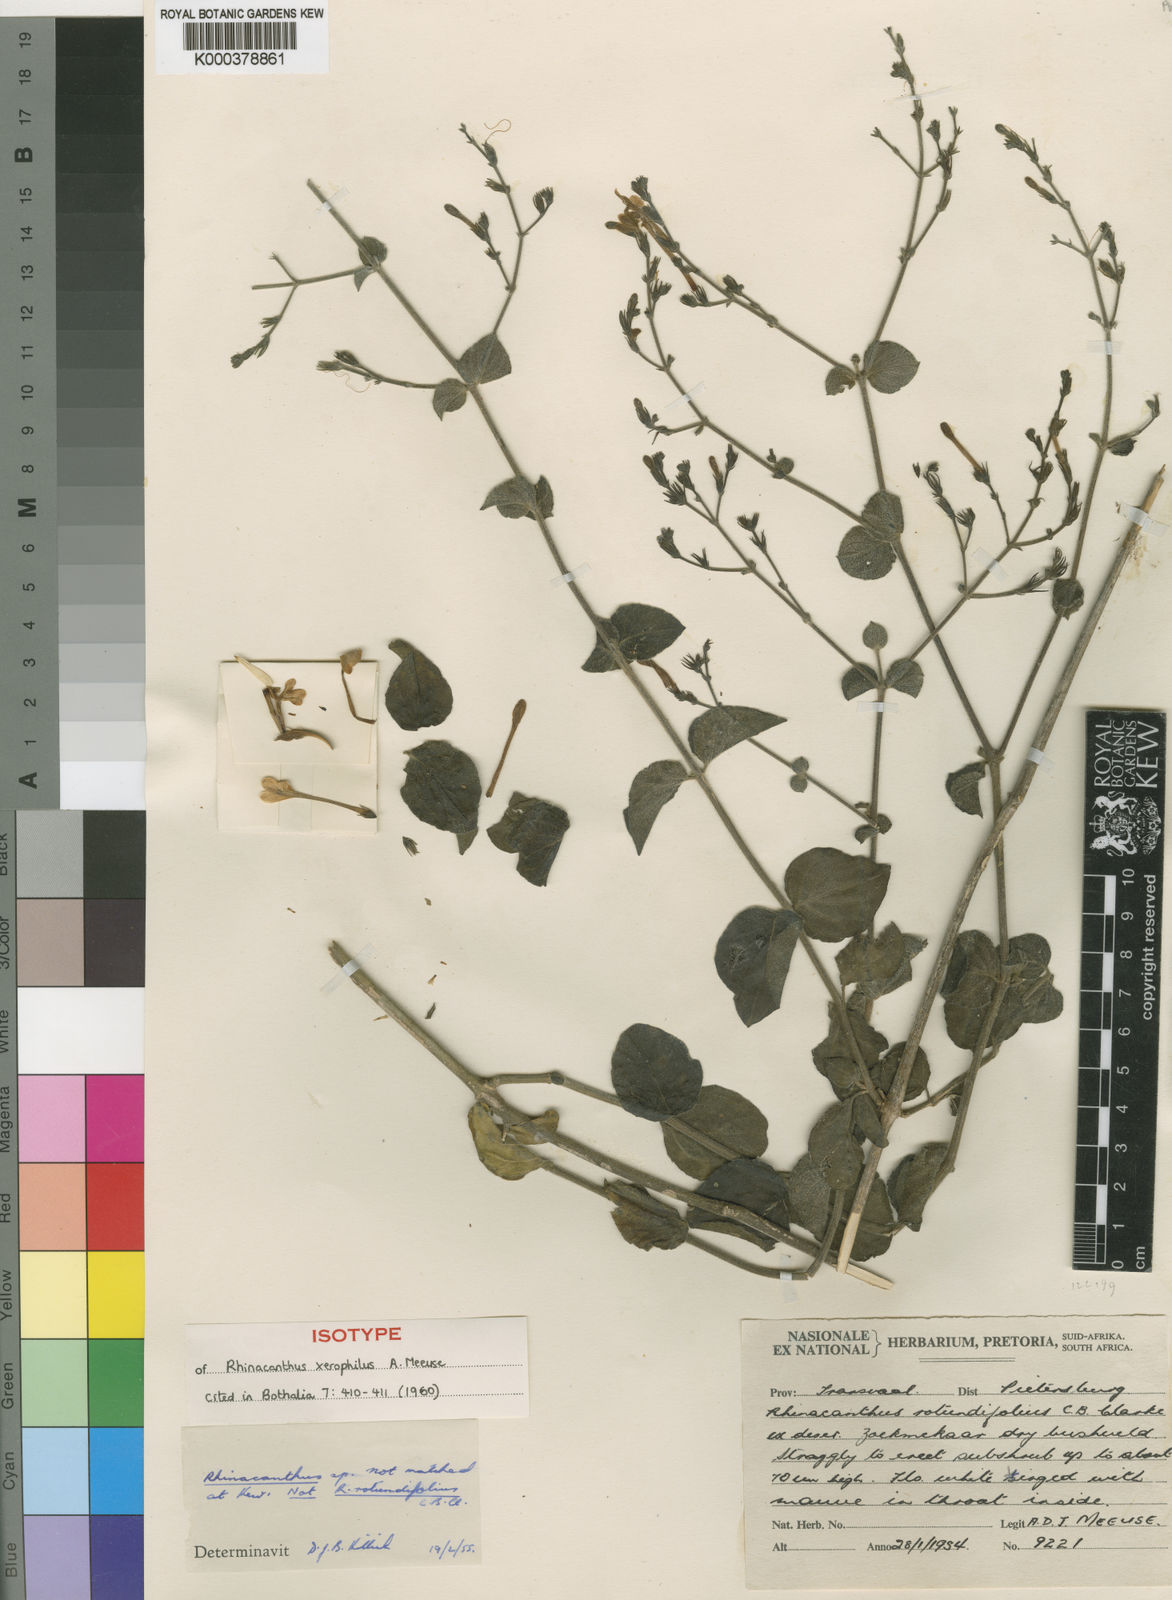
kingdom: Plantae
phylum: Tracheophyta
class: Magnoliopsida
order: Lamiales
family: Acanthaceae
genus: Rhinacanthus
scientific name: Rhinacanthus xerophilus
